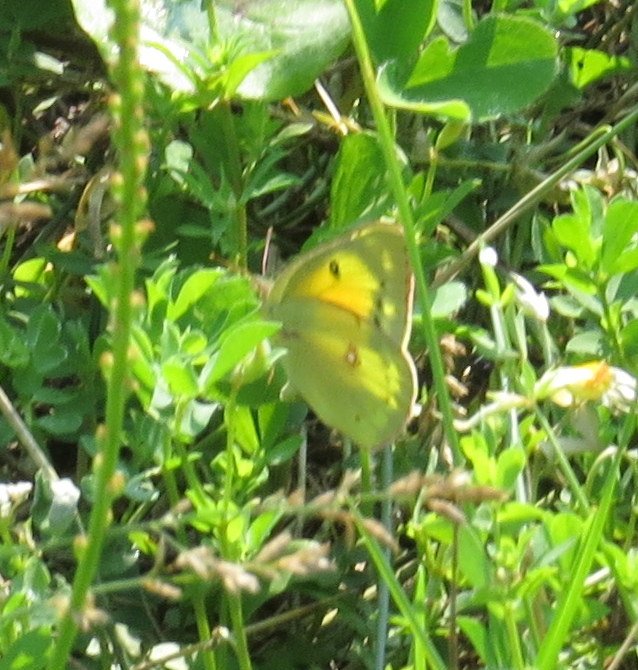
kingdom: Animalia
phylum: Arthropoda
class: Insecta
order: Lepidoptera
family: Pieridae
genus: Colias
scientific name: Colias eurytheme
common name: Orange Sulphur
